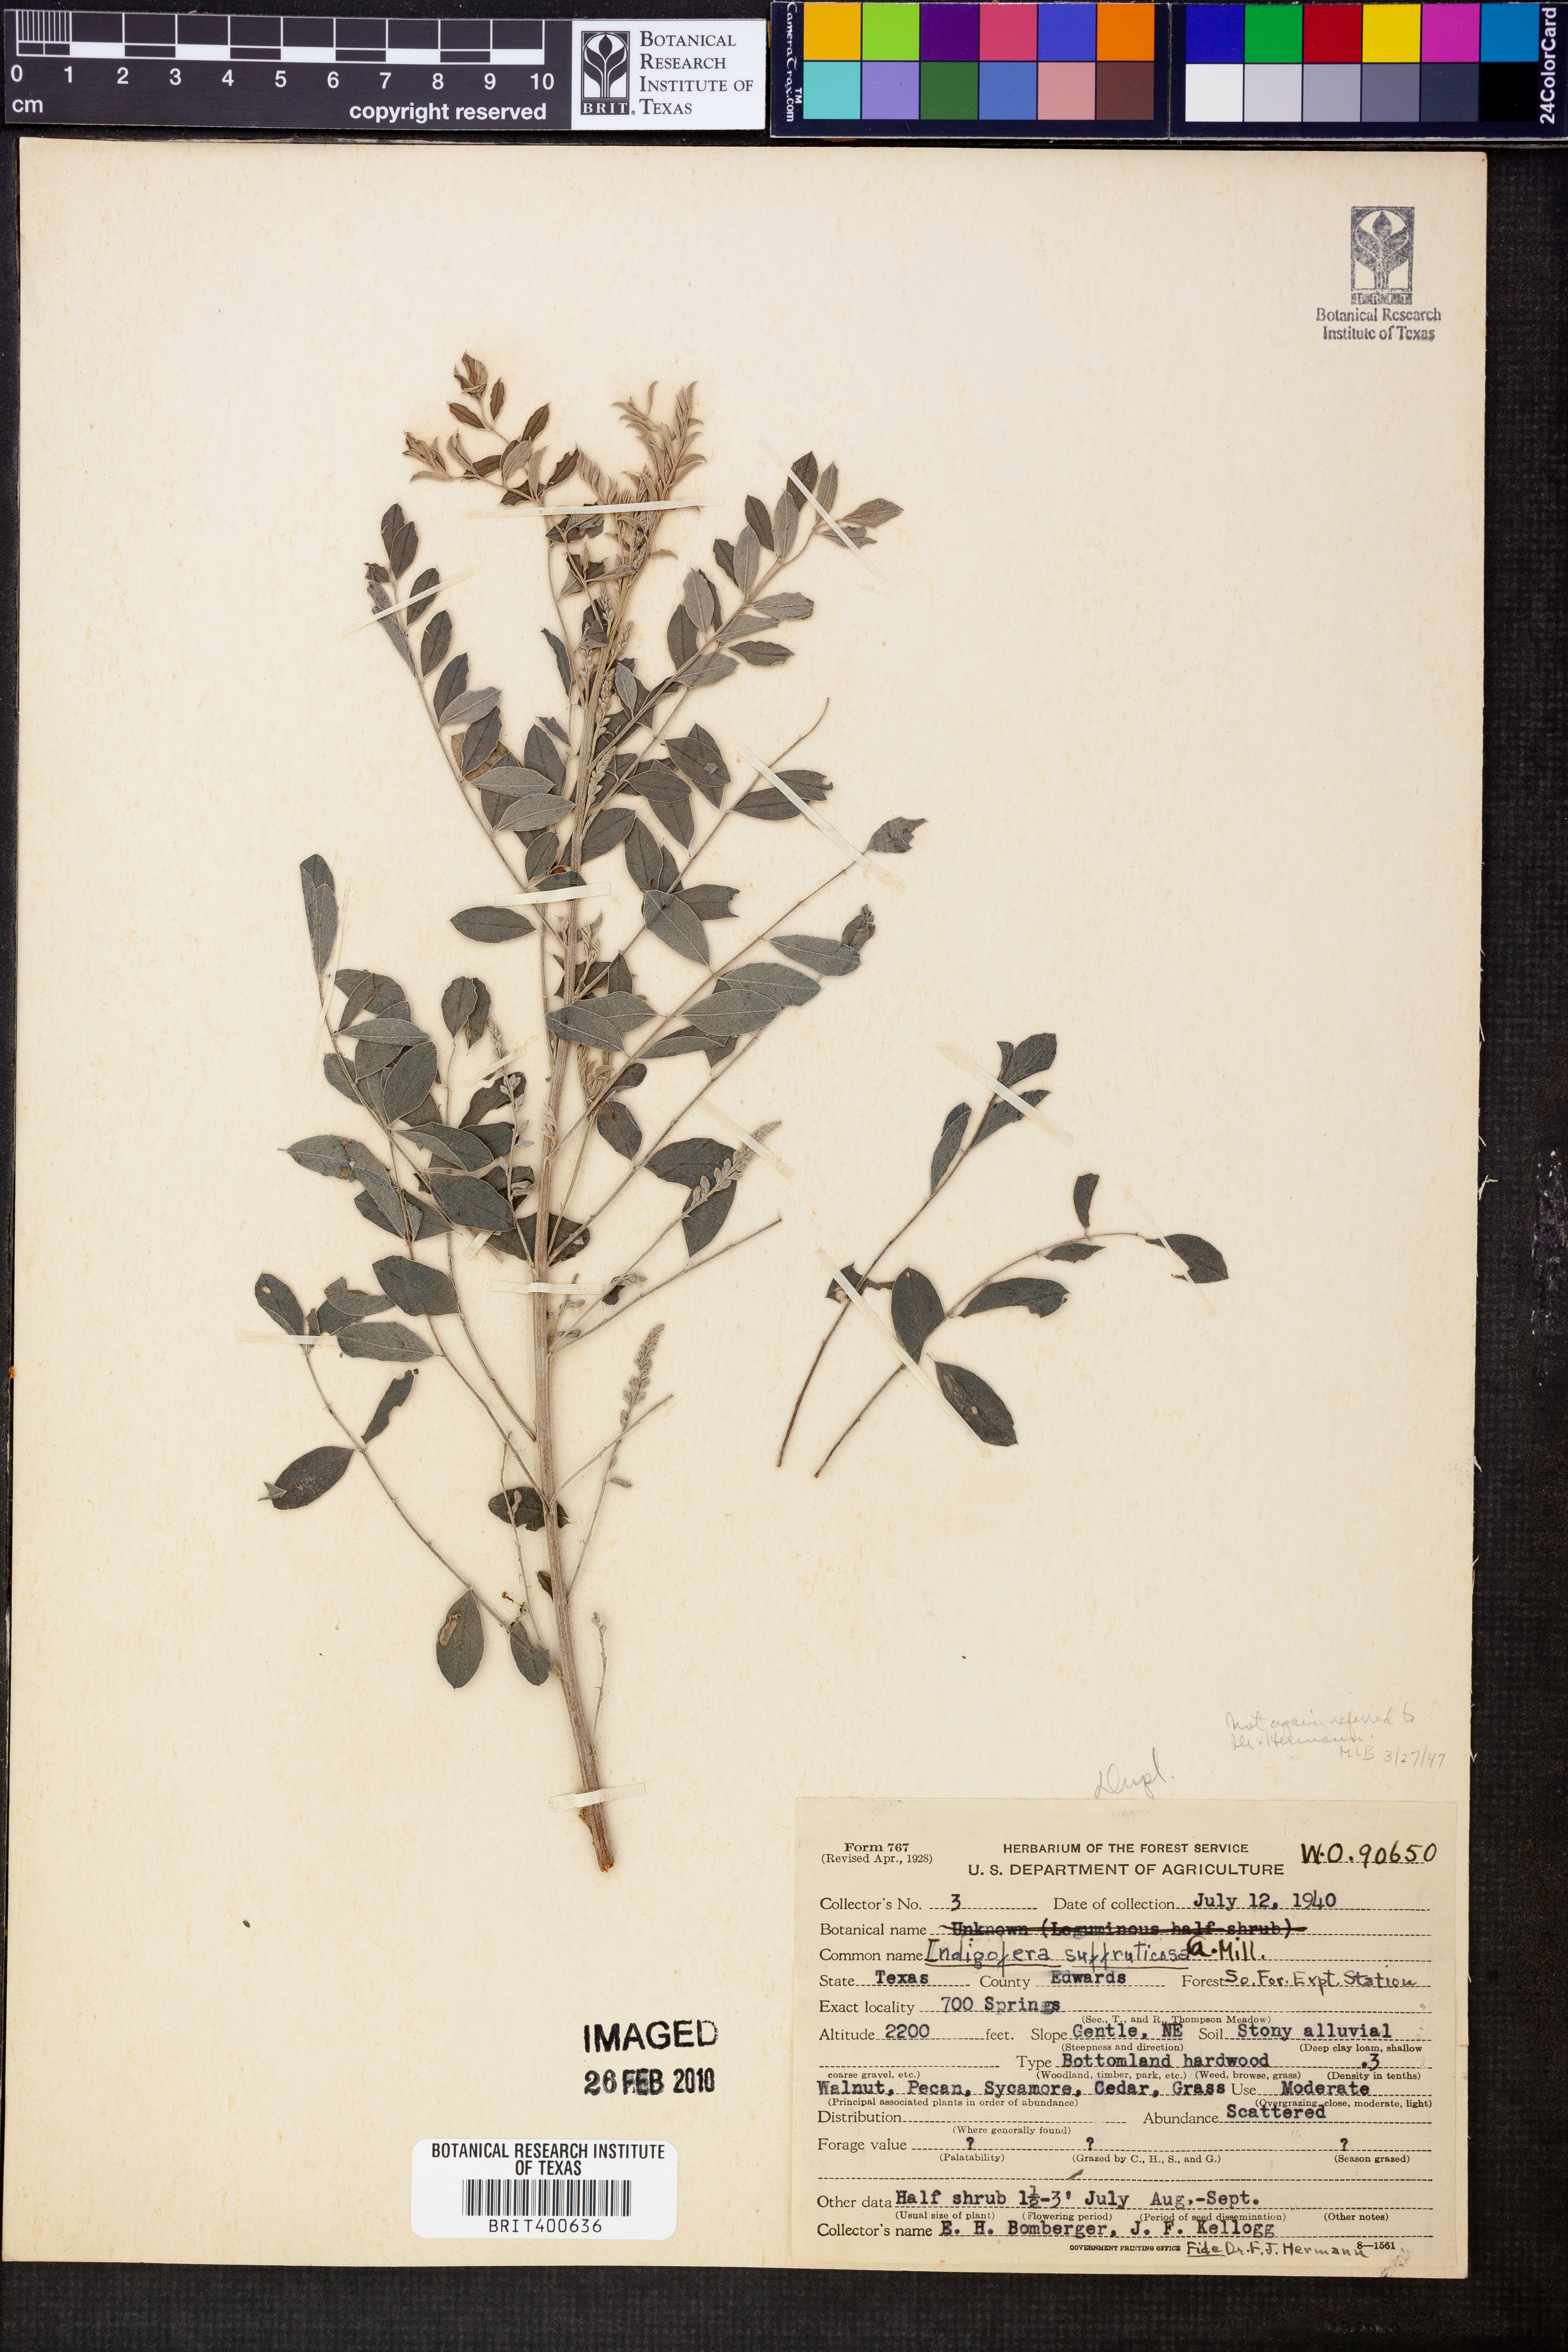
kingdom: Plantae
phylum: Tracheophyta
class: Magnoliopsida
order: Fabales
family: Fabaceae
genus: Indigofera
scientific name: Indigofera suffruticosa
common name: Anil de pasto
